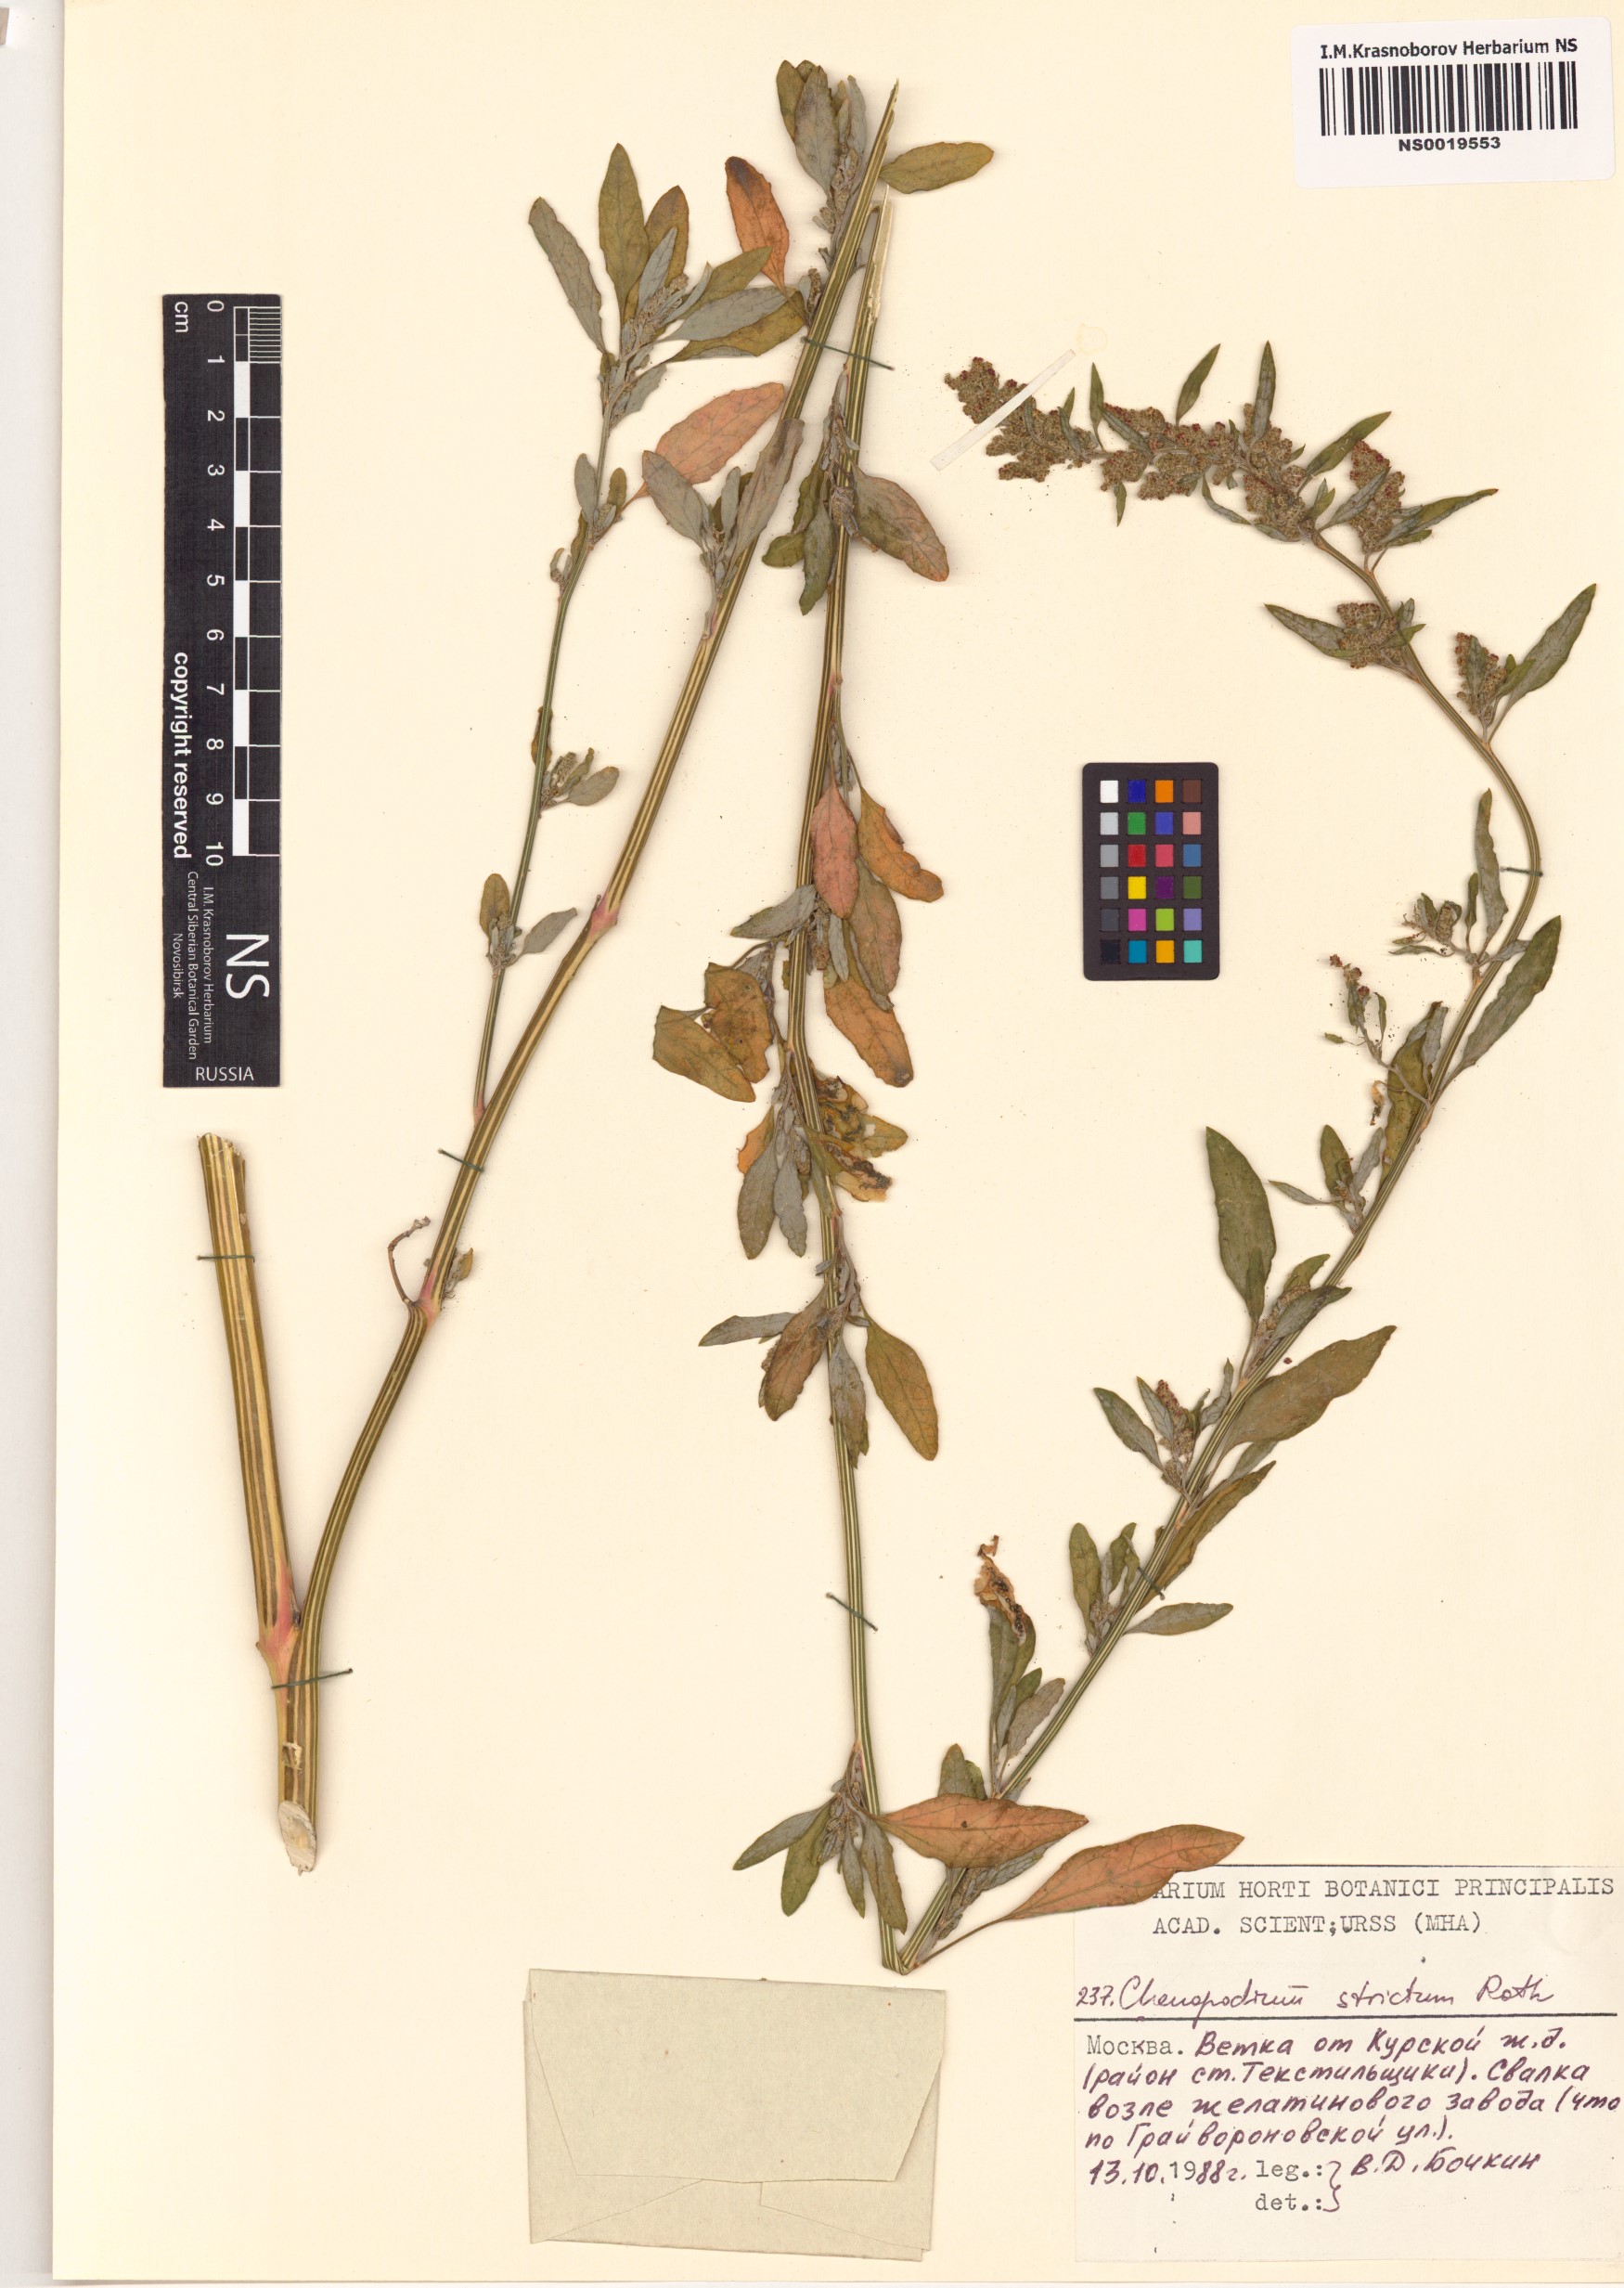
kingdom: Plantae
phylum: Tracheophyta
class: Magnoliopsida
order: Caryophyllales
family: Amaranthaceae
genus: Chenopodium
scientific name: Chenopodium album
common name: Fat-hen
